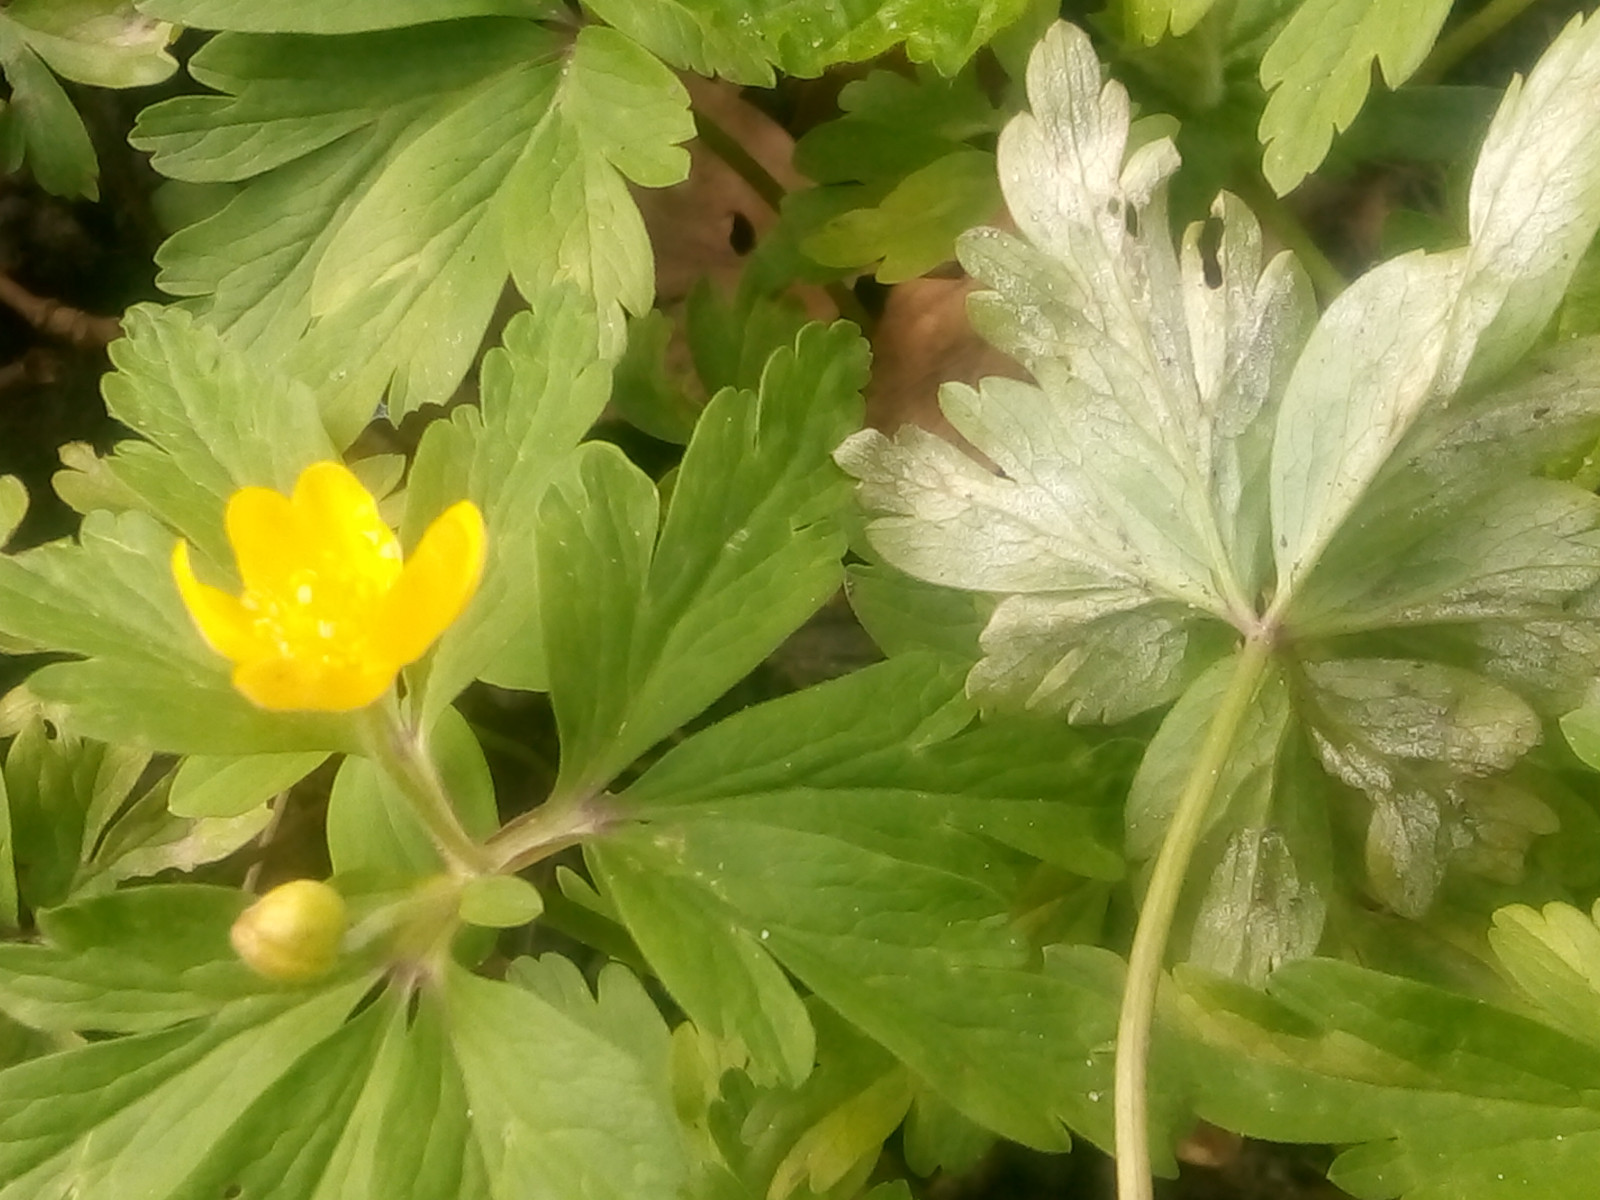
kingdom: Chromista
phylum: Oomycota
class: Peronosporea
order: Peronosporales
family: Peronosporaceae
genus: Plasmoverna
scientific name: Plasmoverna anemones-ranunculoidis
